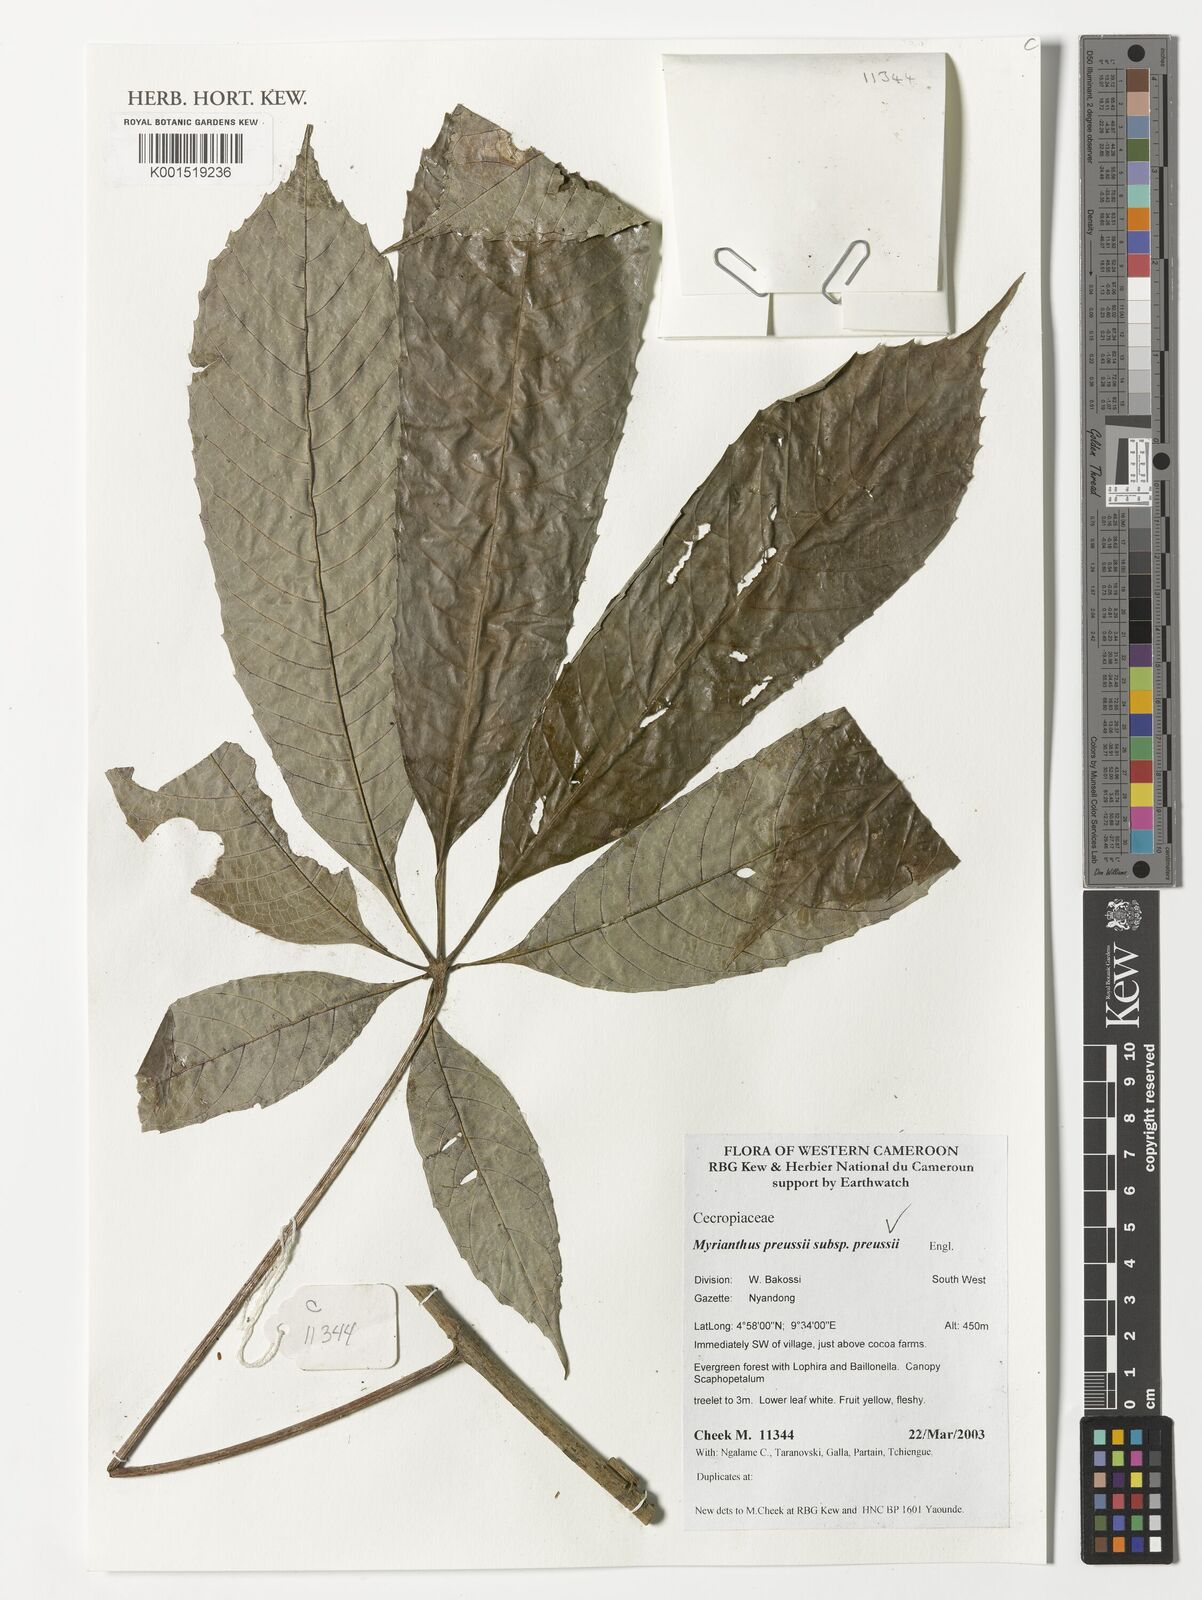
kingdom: Plantae
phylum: Tracheophyta
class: Magnoliopsida
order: Rosales
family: Urticaceae
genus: Myrianthus
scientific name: Myrianthus preussii
